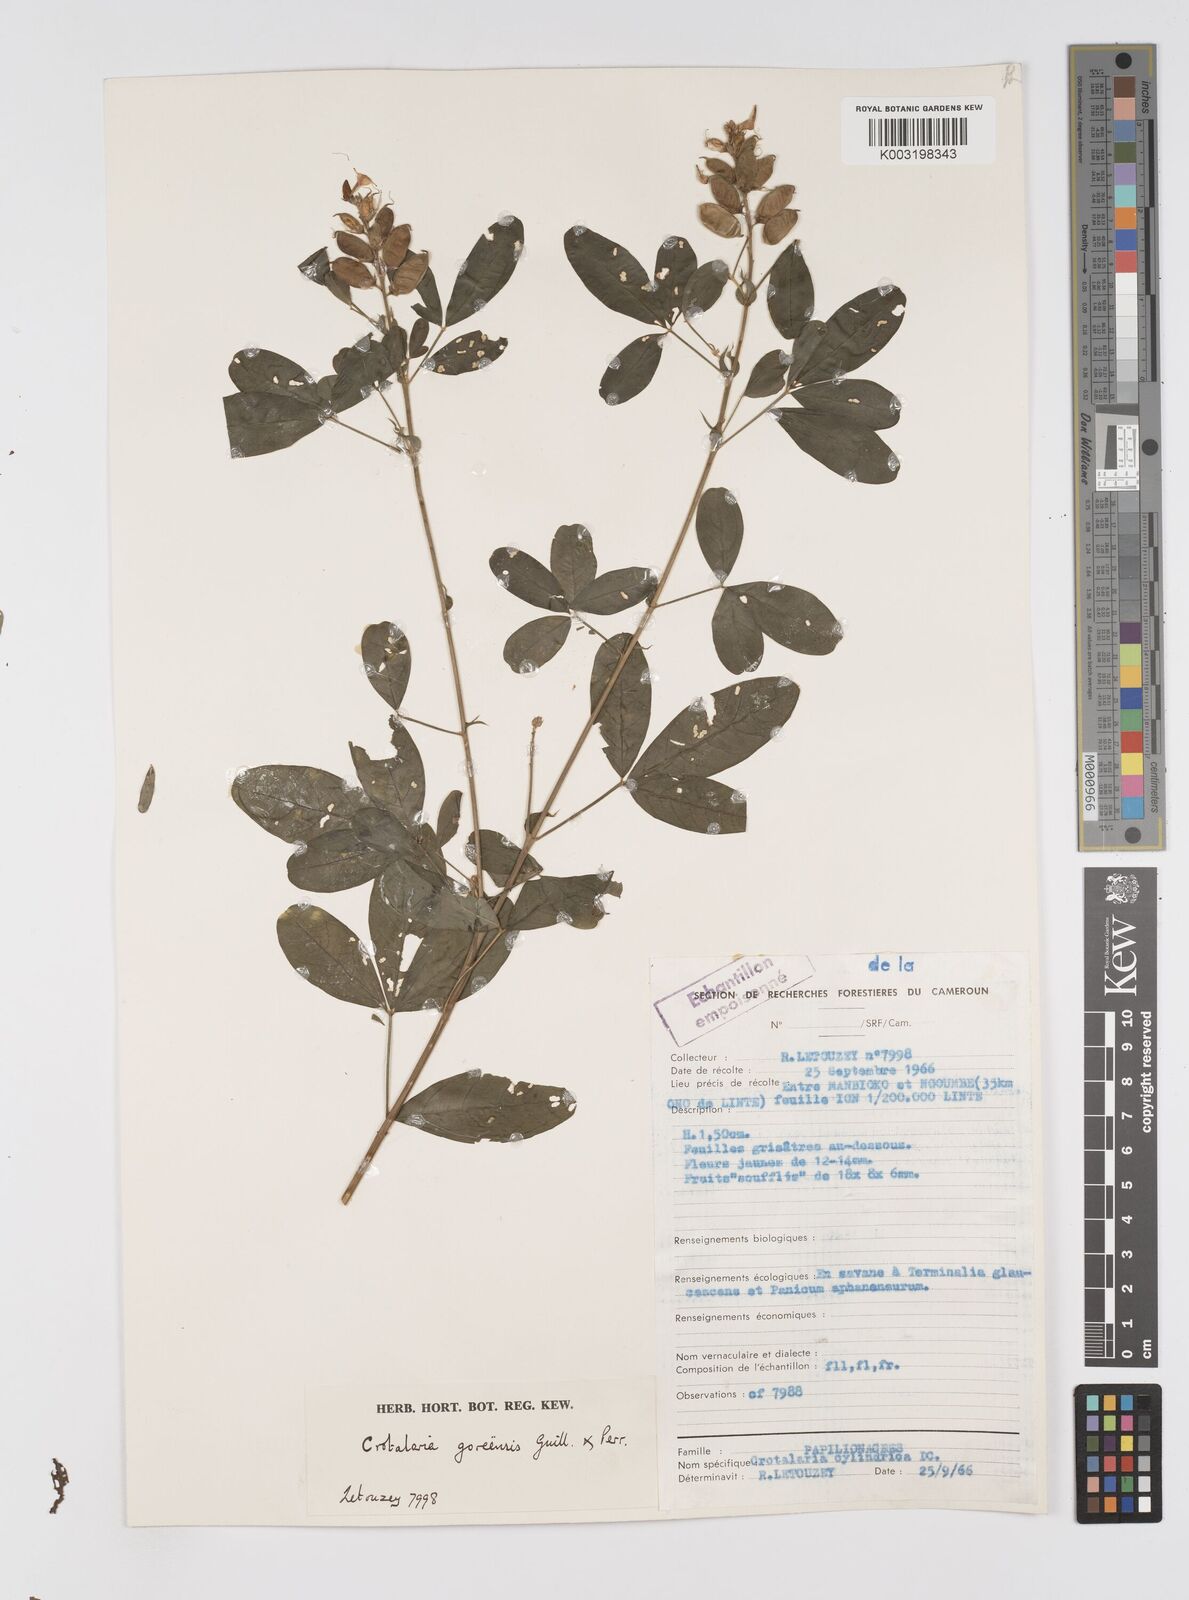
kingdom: Plantae
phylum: Tracheophyta
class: Magnoliopsida
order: Fabales
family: Fabaceae
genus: Crotalaria
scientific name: Crotalaria goreensis
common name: Gambia-pea
